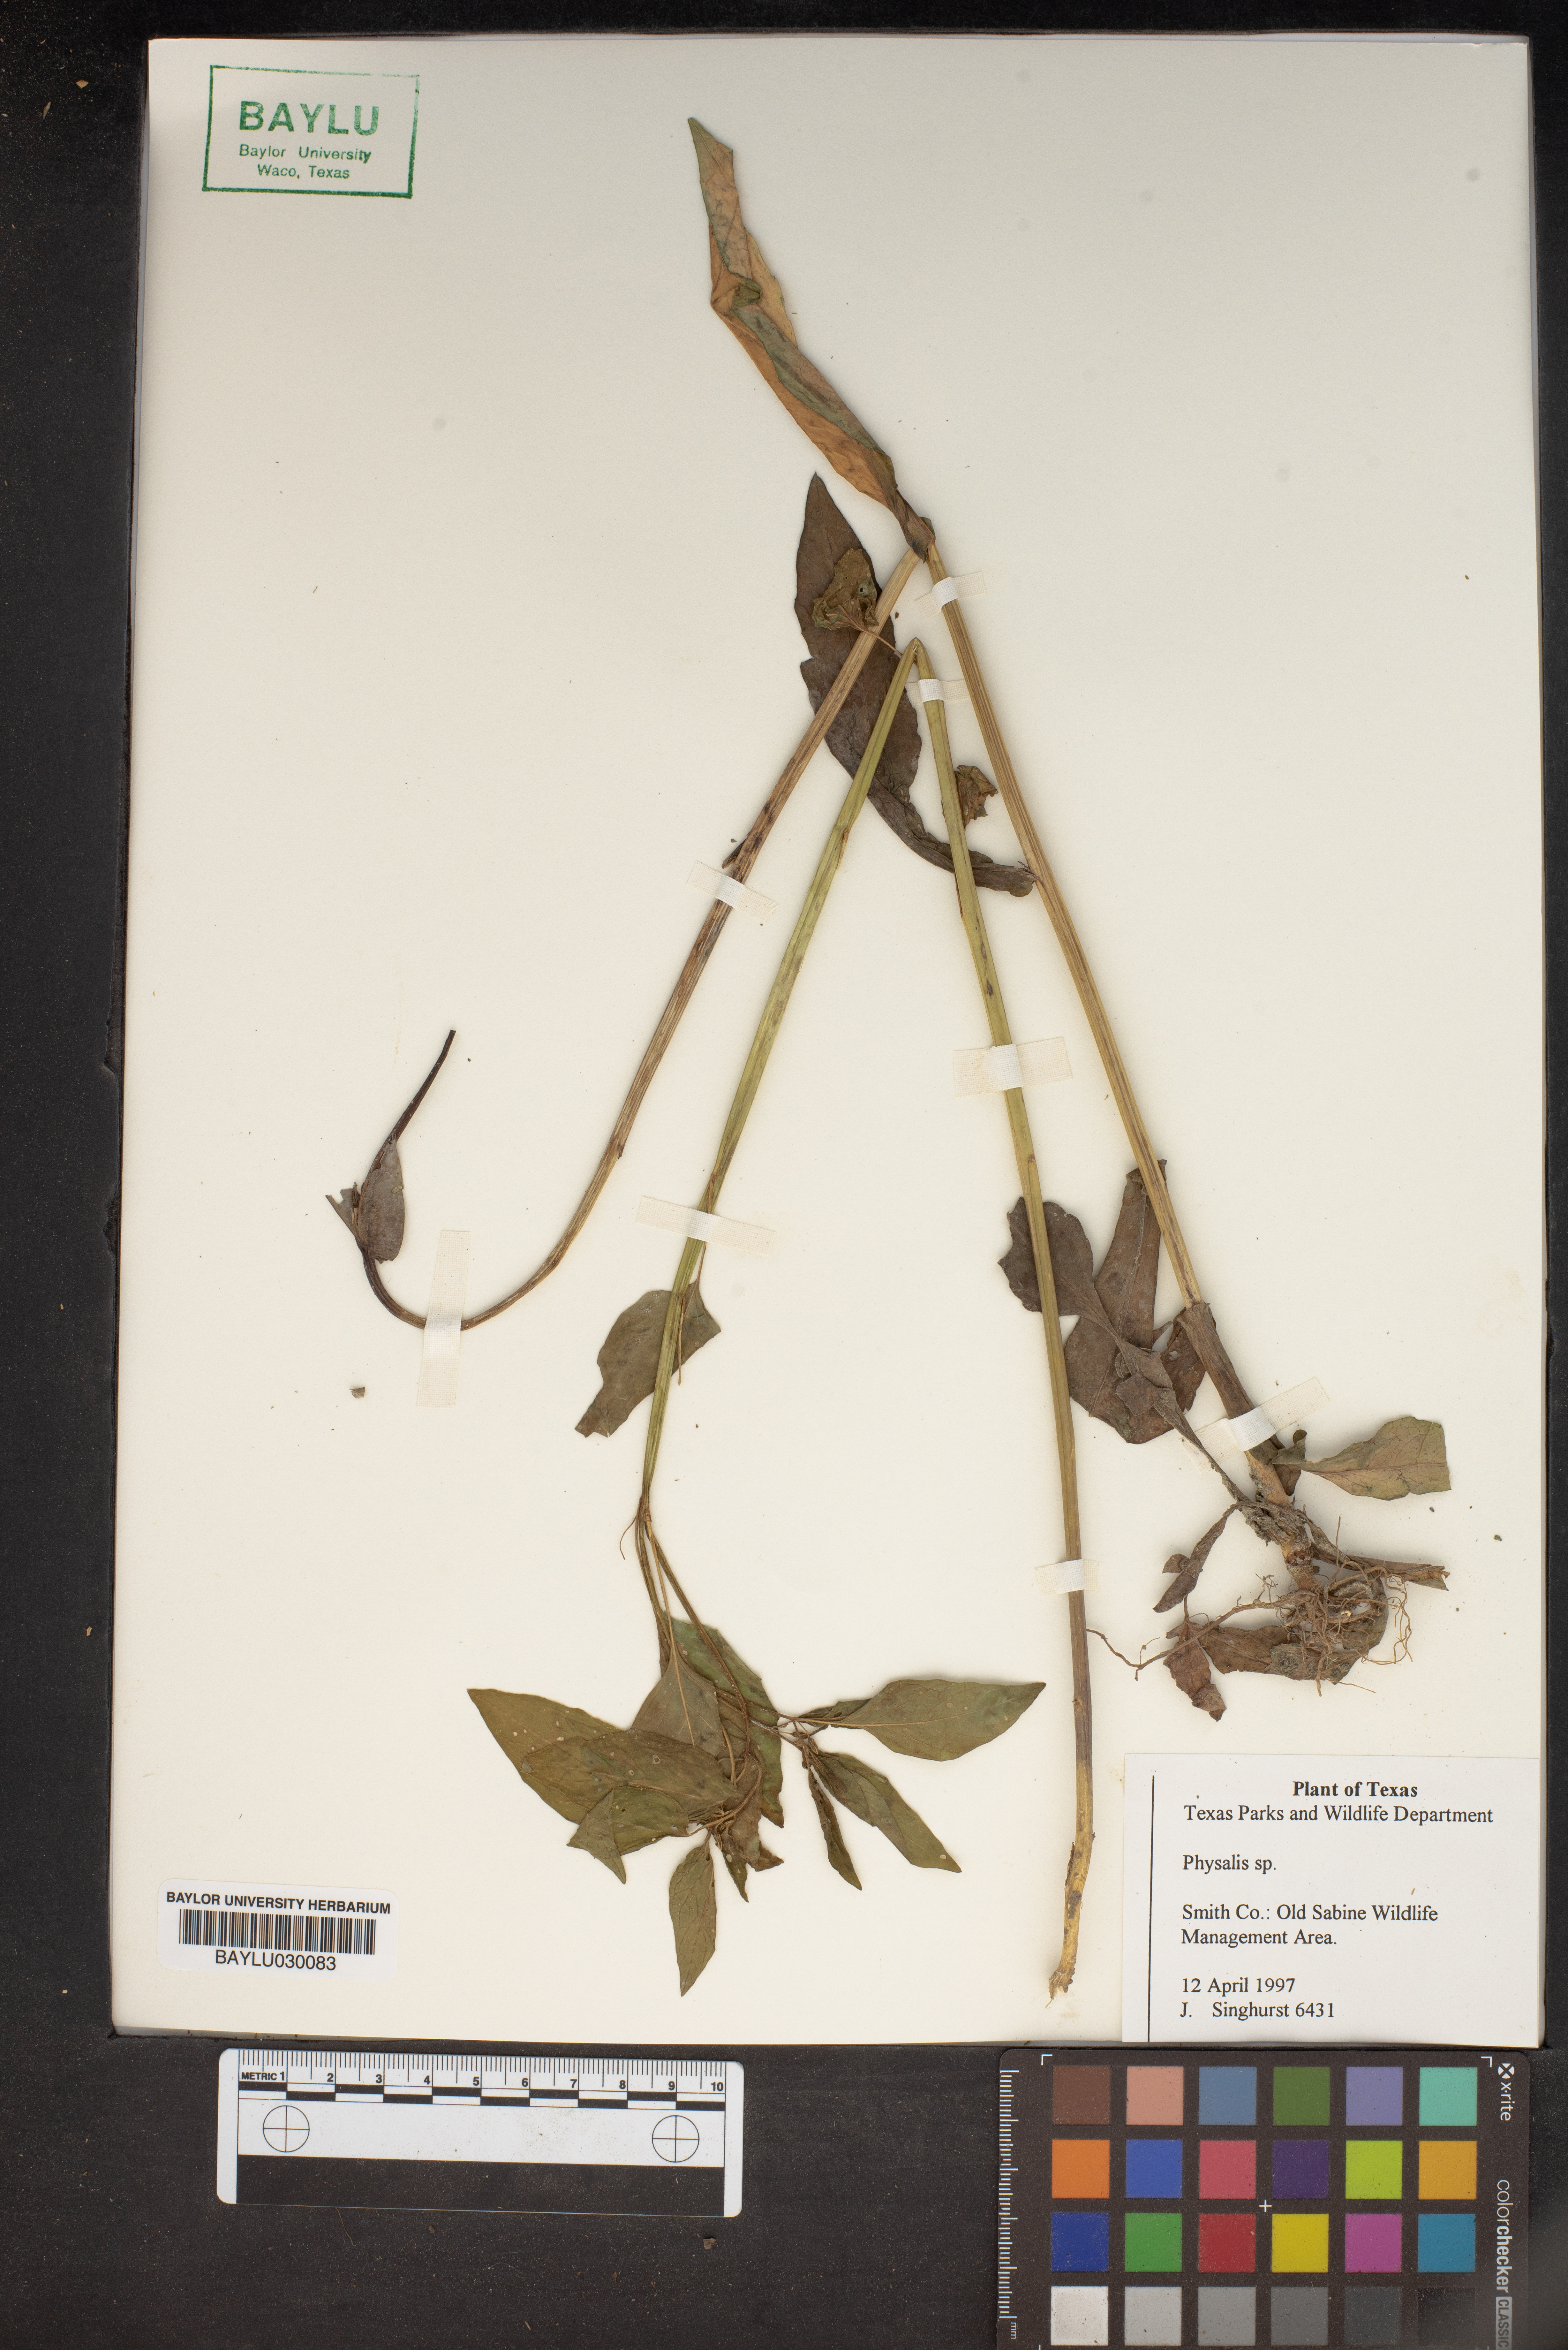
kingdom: Plantae
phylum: Tracheophyta
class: Magnoliopsida
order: Solanales
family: Solanaceae
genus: Physalis
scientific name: Physalis
